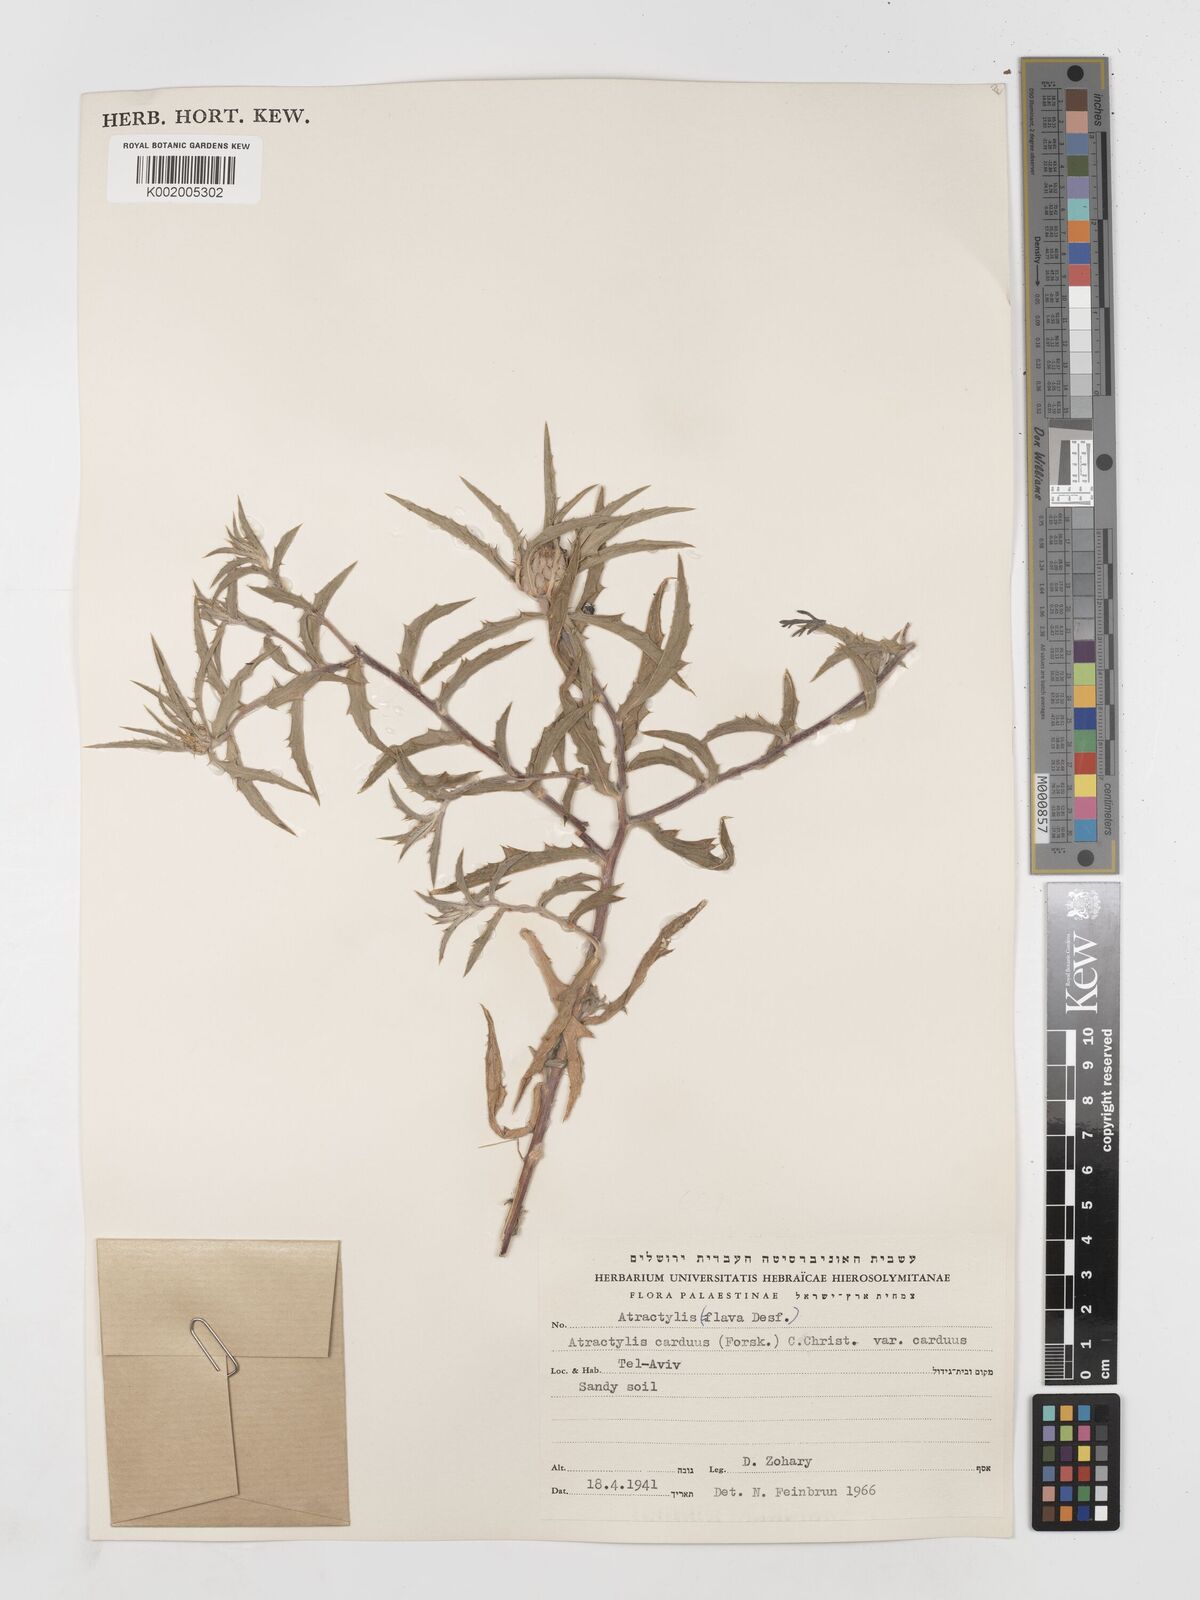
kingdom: Plantae
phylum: Tracheophyta
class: Magnoliopsida
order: Asterales
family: Asteraceae
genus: Atractylis
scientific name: Atractylis carduus
